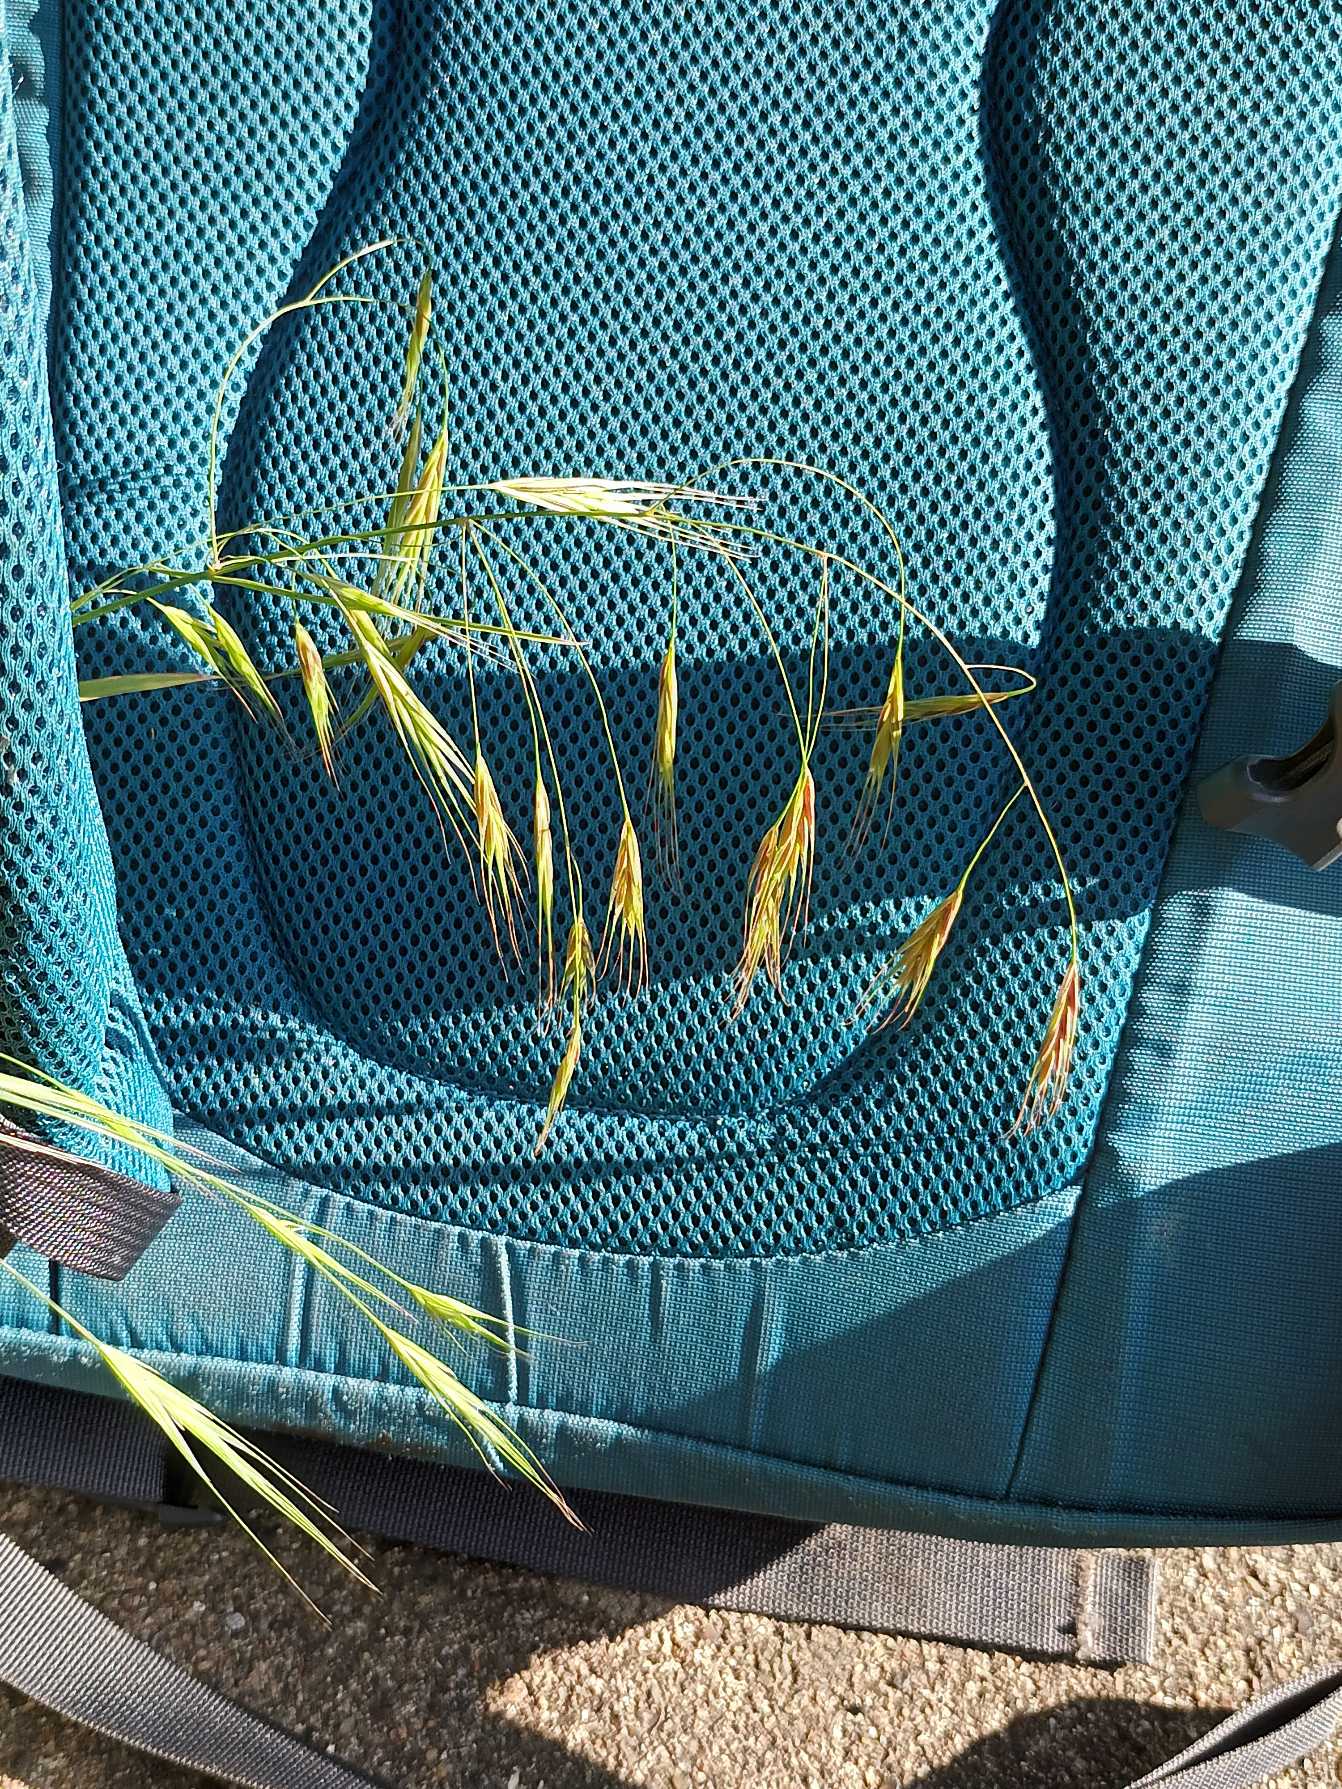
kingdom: Plantae
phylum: Tracheophyta
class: Liliopsida
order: Poales
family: Poaceae
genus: Bromus
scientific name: Bromus sterilis
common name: Gold hejre
